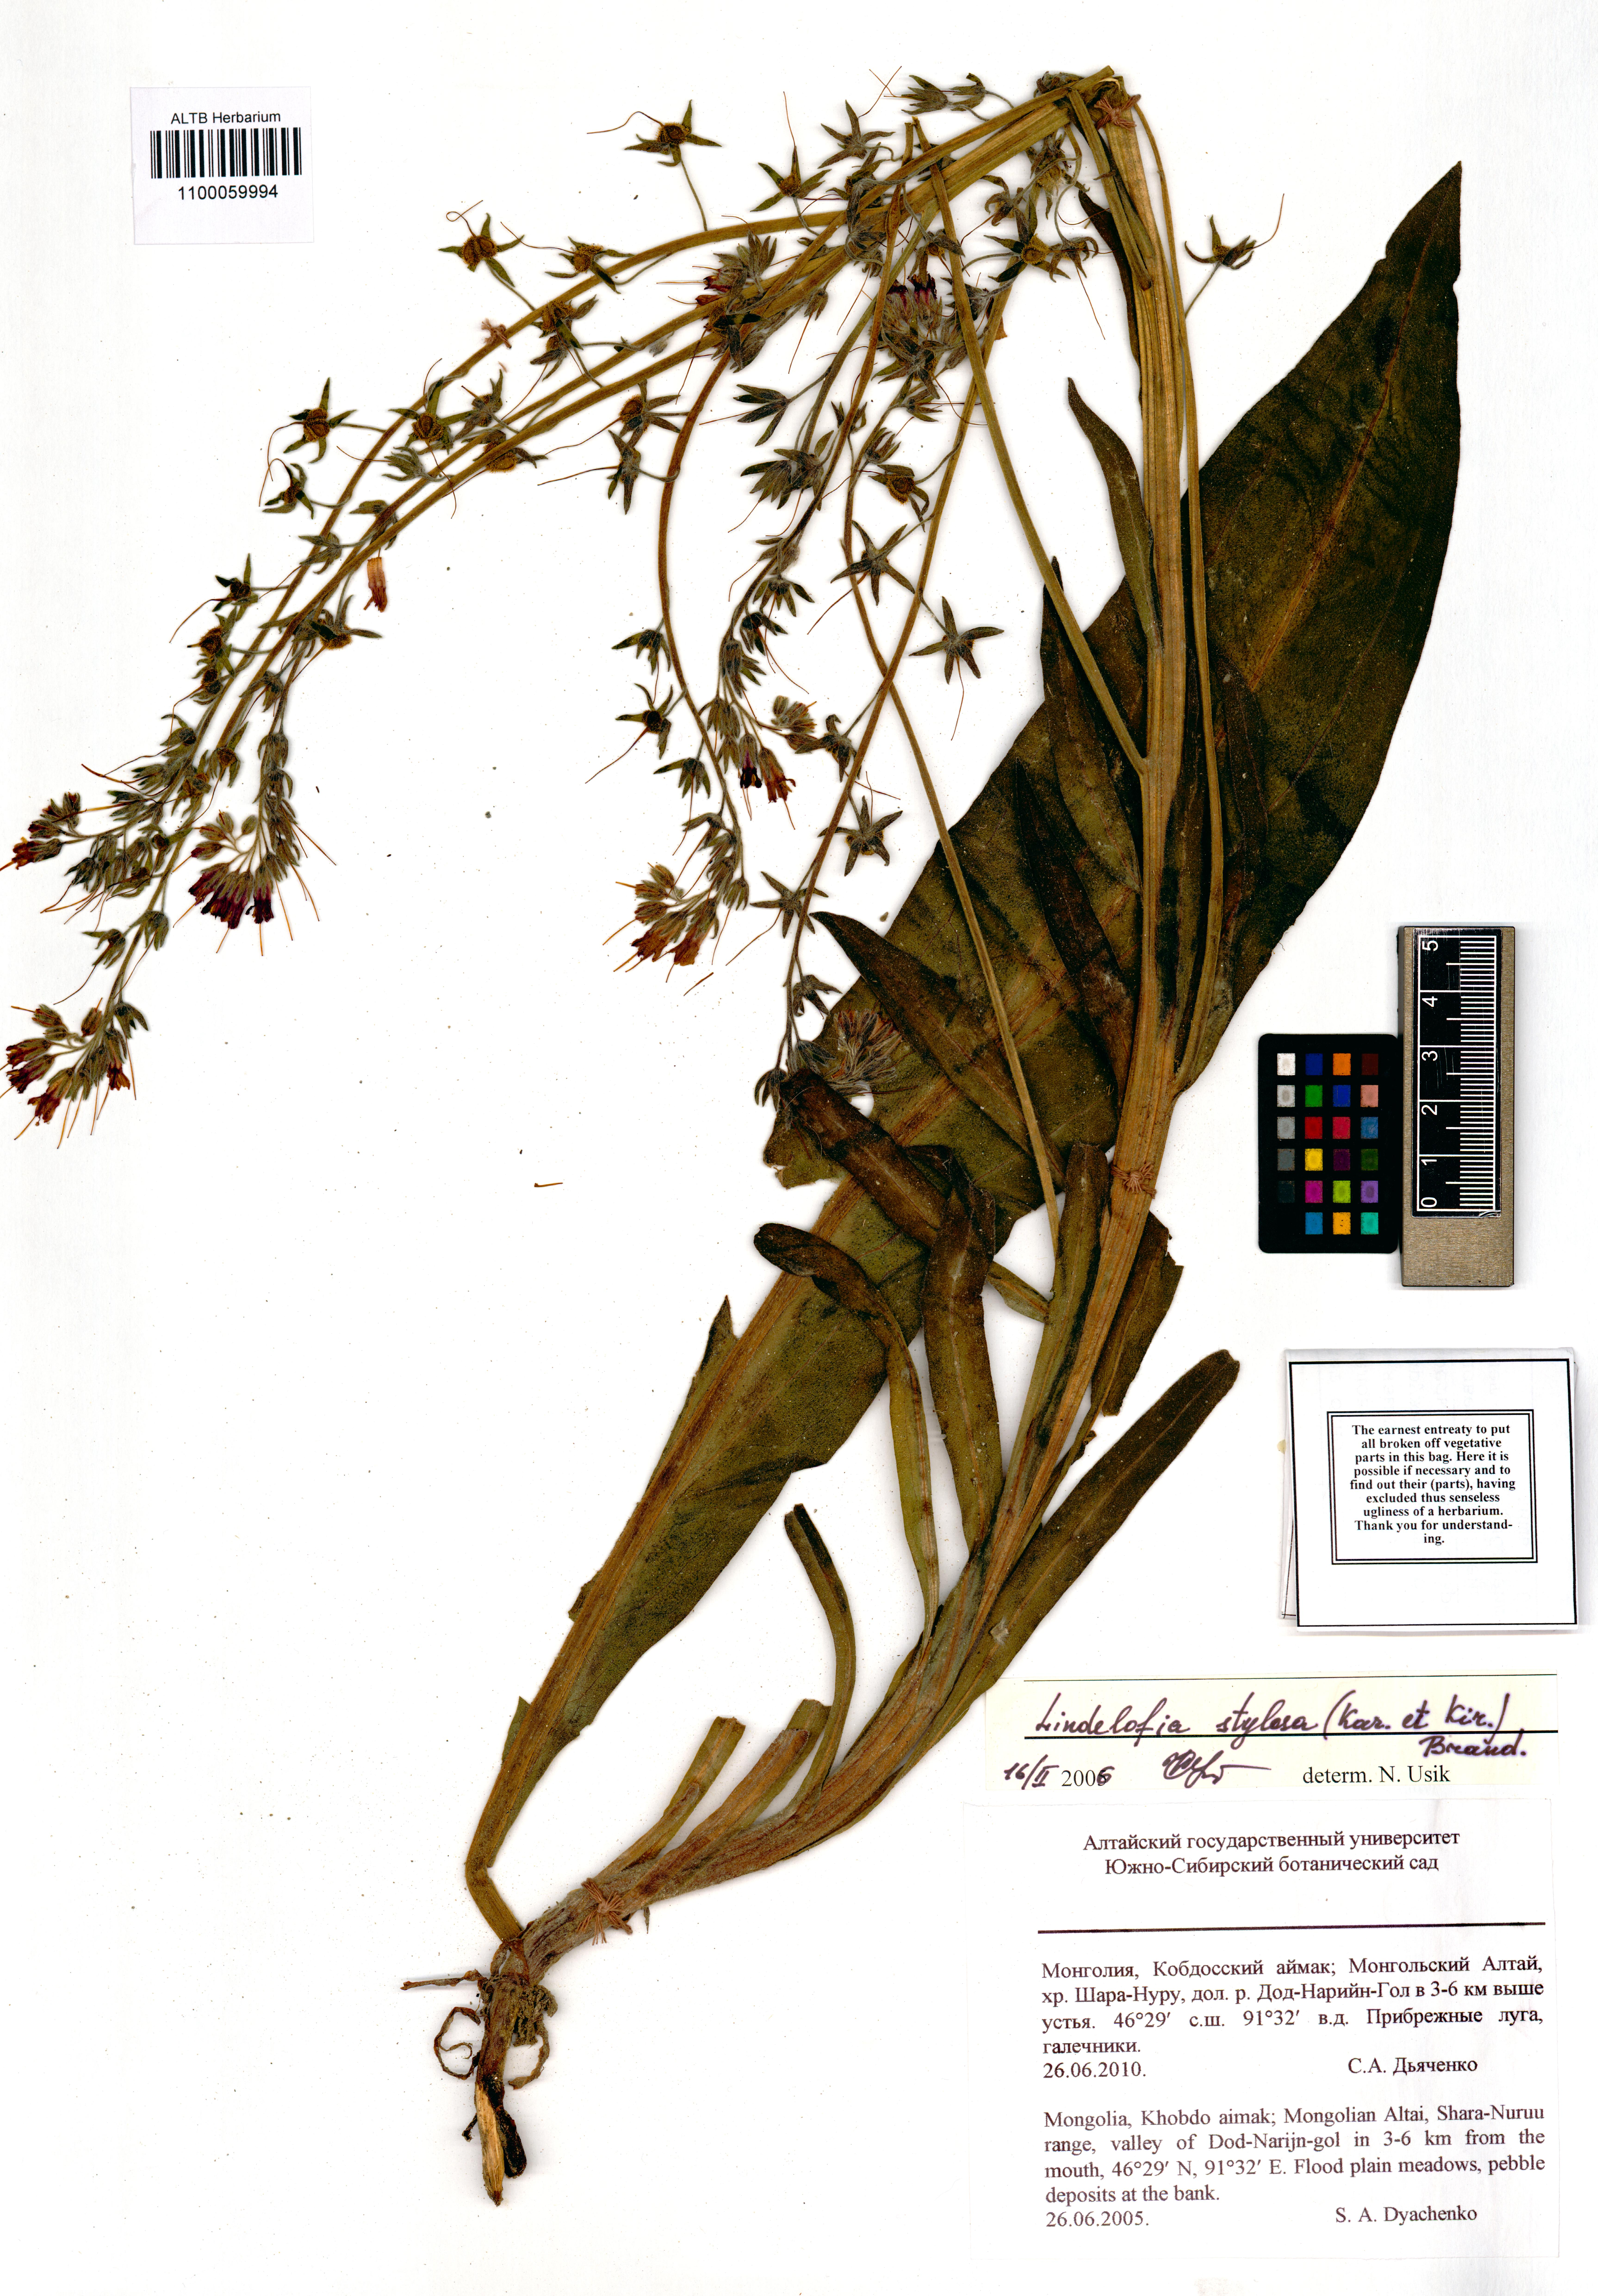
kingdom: Plantae
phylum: Tracheophyta
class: Magnoliopsida
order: Boraginales
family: Boraginaceae
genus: Lindelofia
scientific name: Lindelofia stylosa
